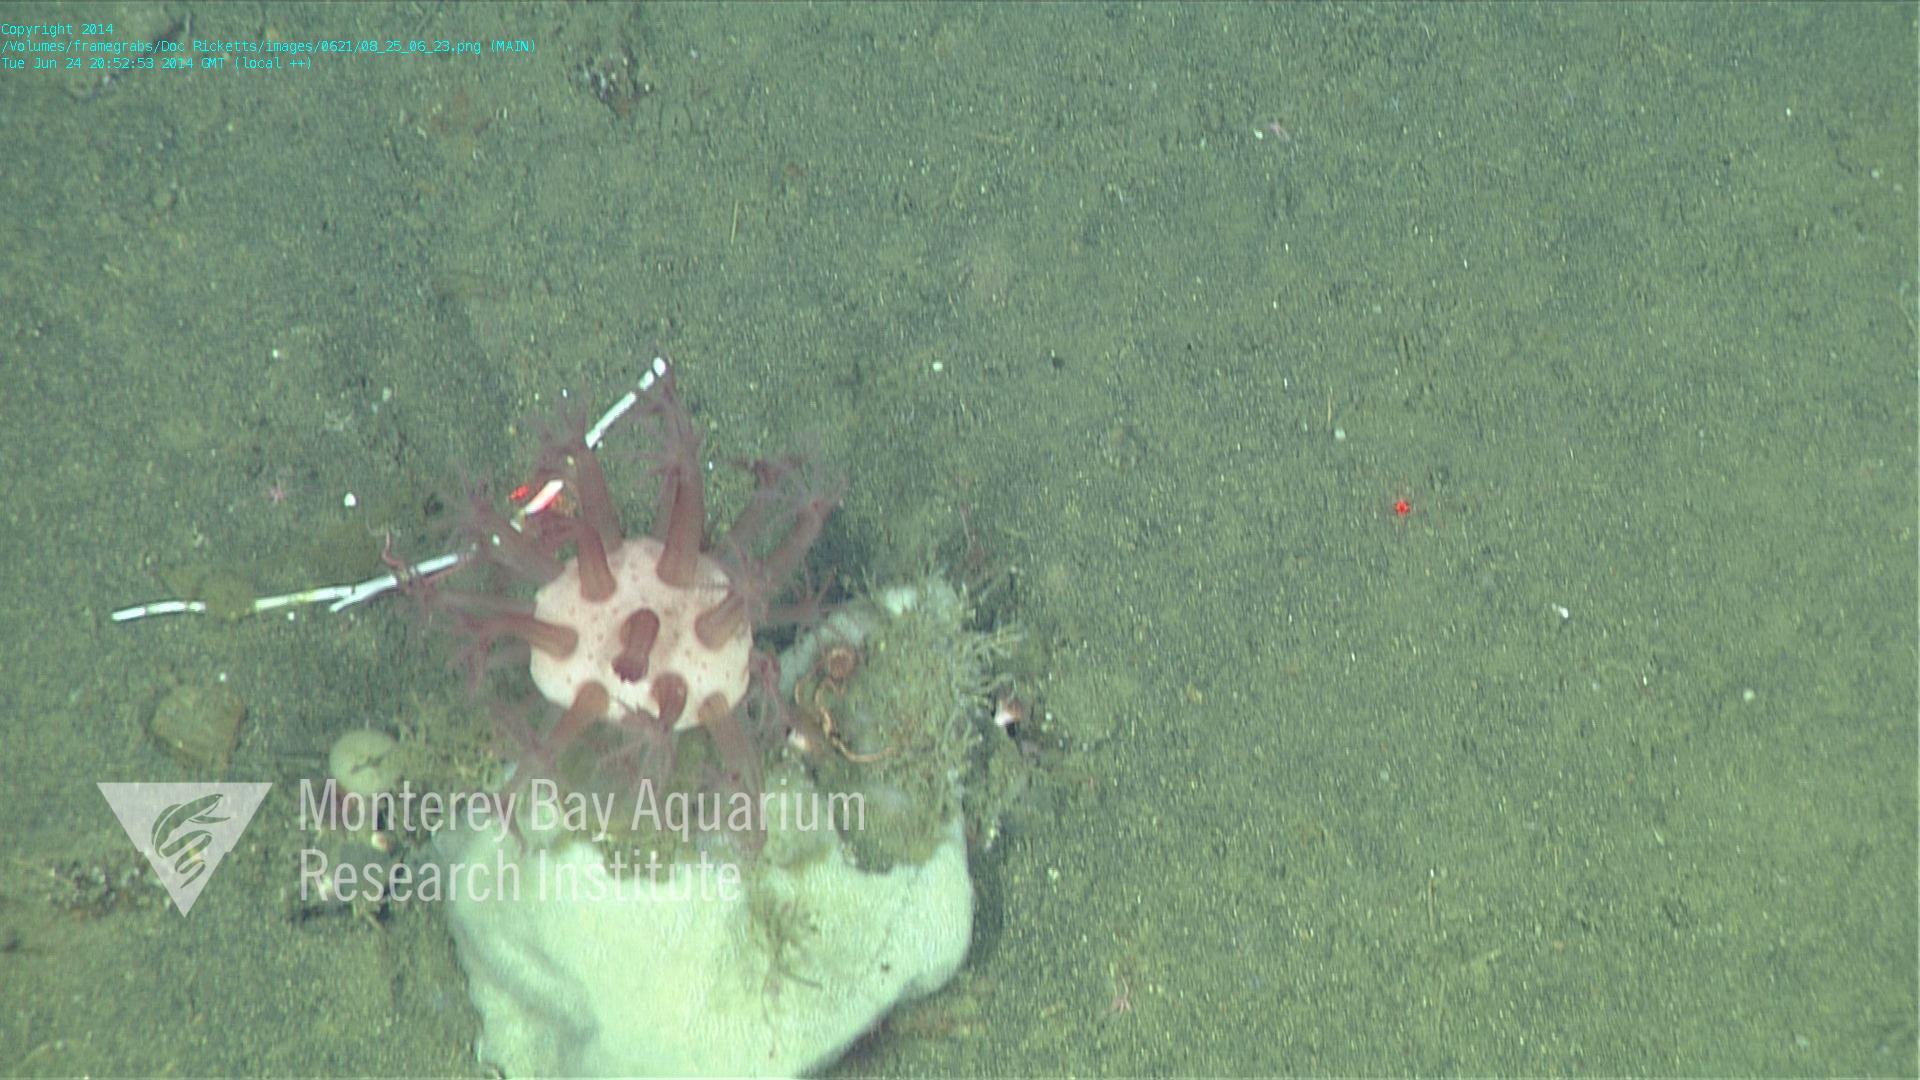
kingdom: Animalia
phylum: Cnidaria
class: Anthozoa
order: Scleralcyonacea
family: Coralliidae
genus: Heteropolypus
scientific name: Heteropolypus ritteri
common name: Ritter's soft coral
